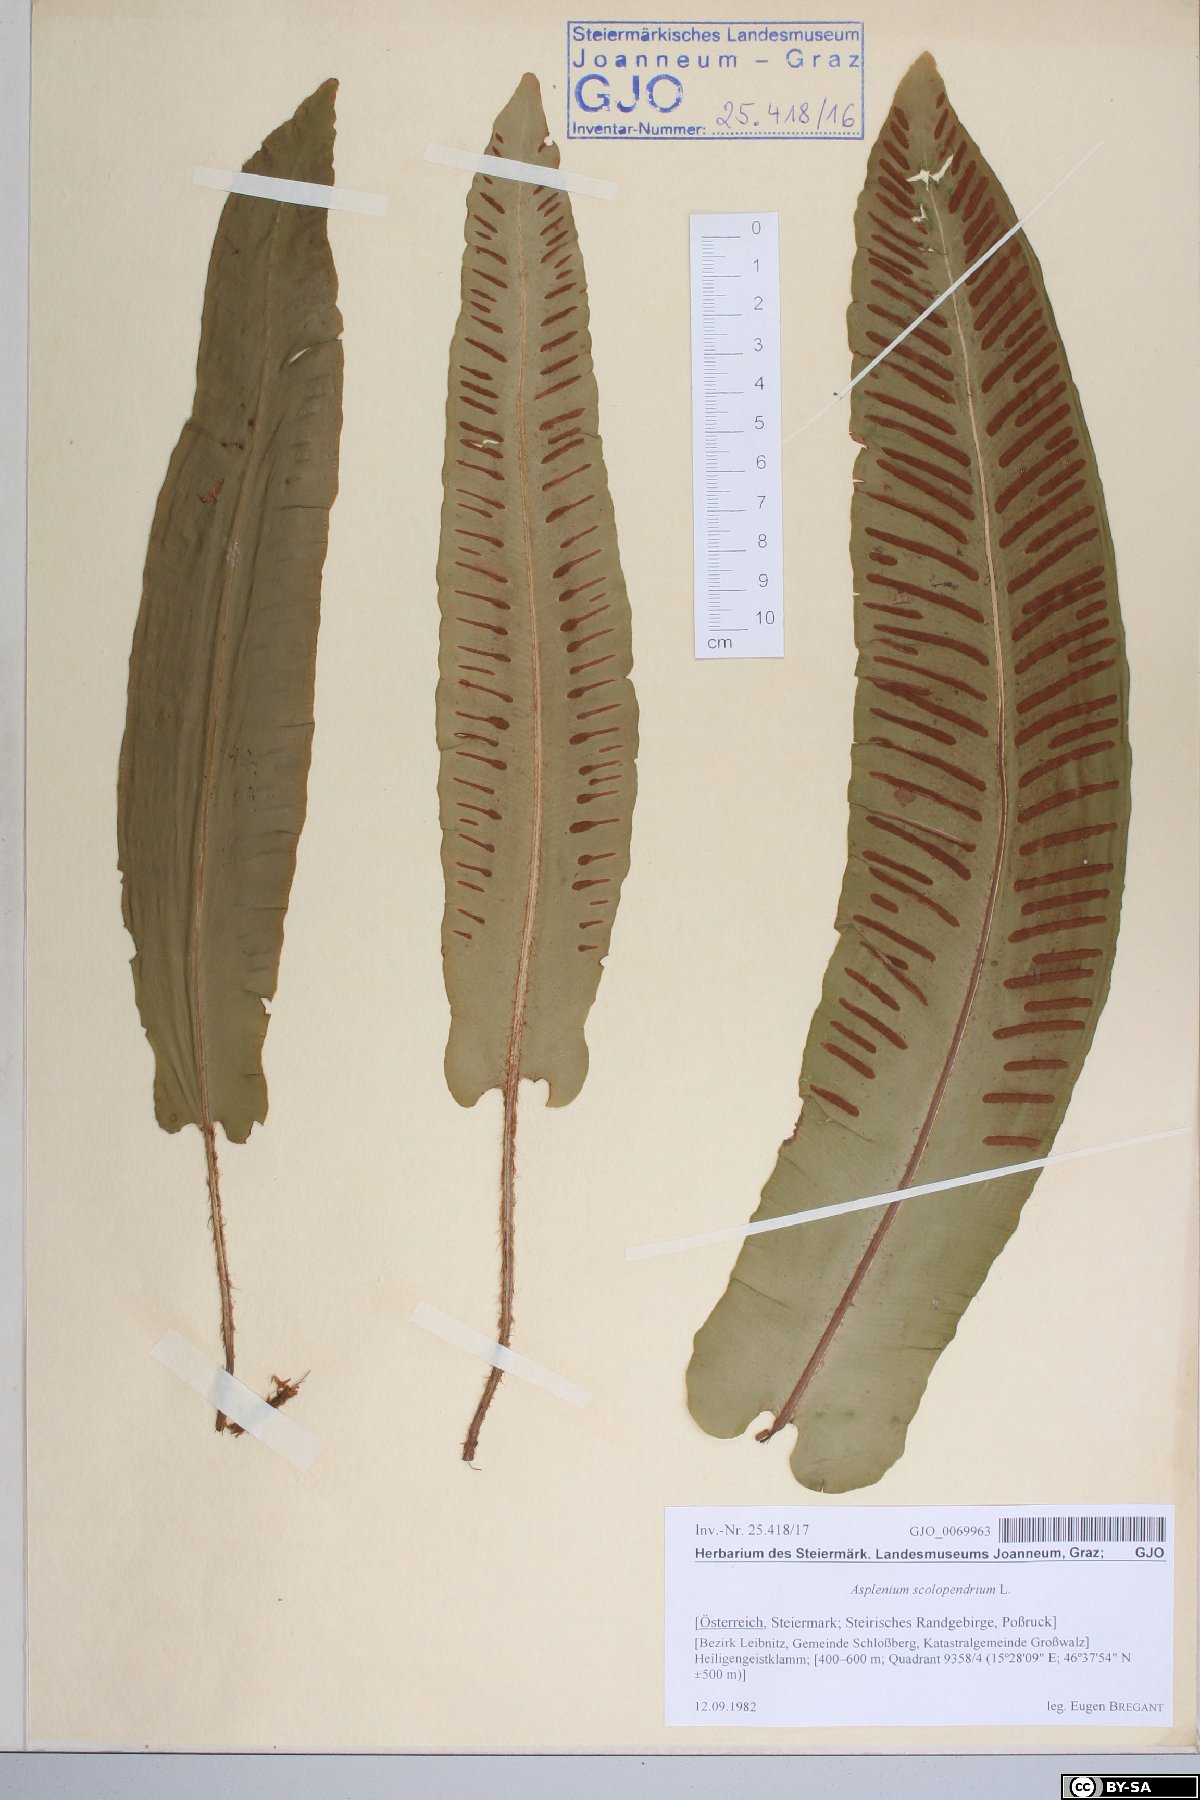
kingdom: Plantae
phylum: Tracheophyta
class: Polypodiopsida
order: Polypodiales
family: Aspleniaceae
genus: Asplenium
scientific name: Asplenium scolopendrium
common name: Hart's-tongue fern
